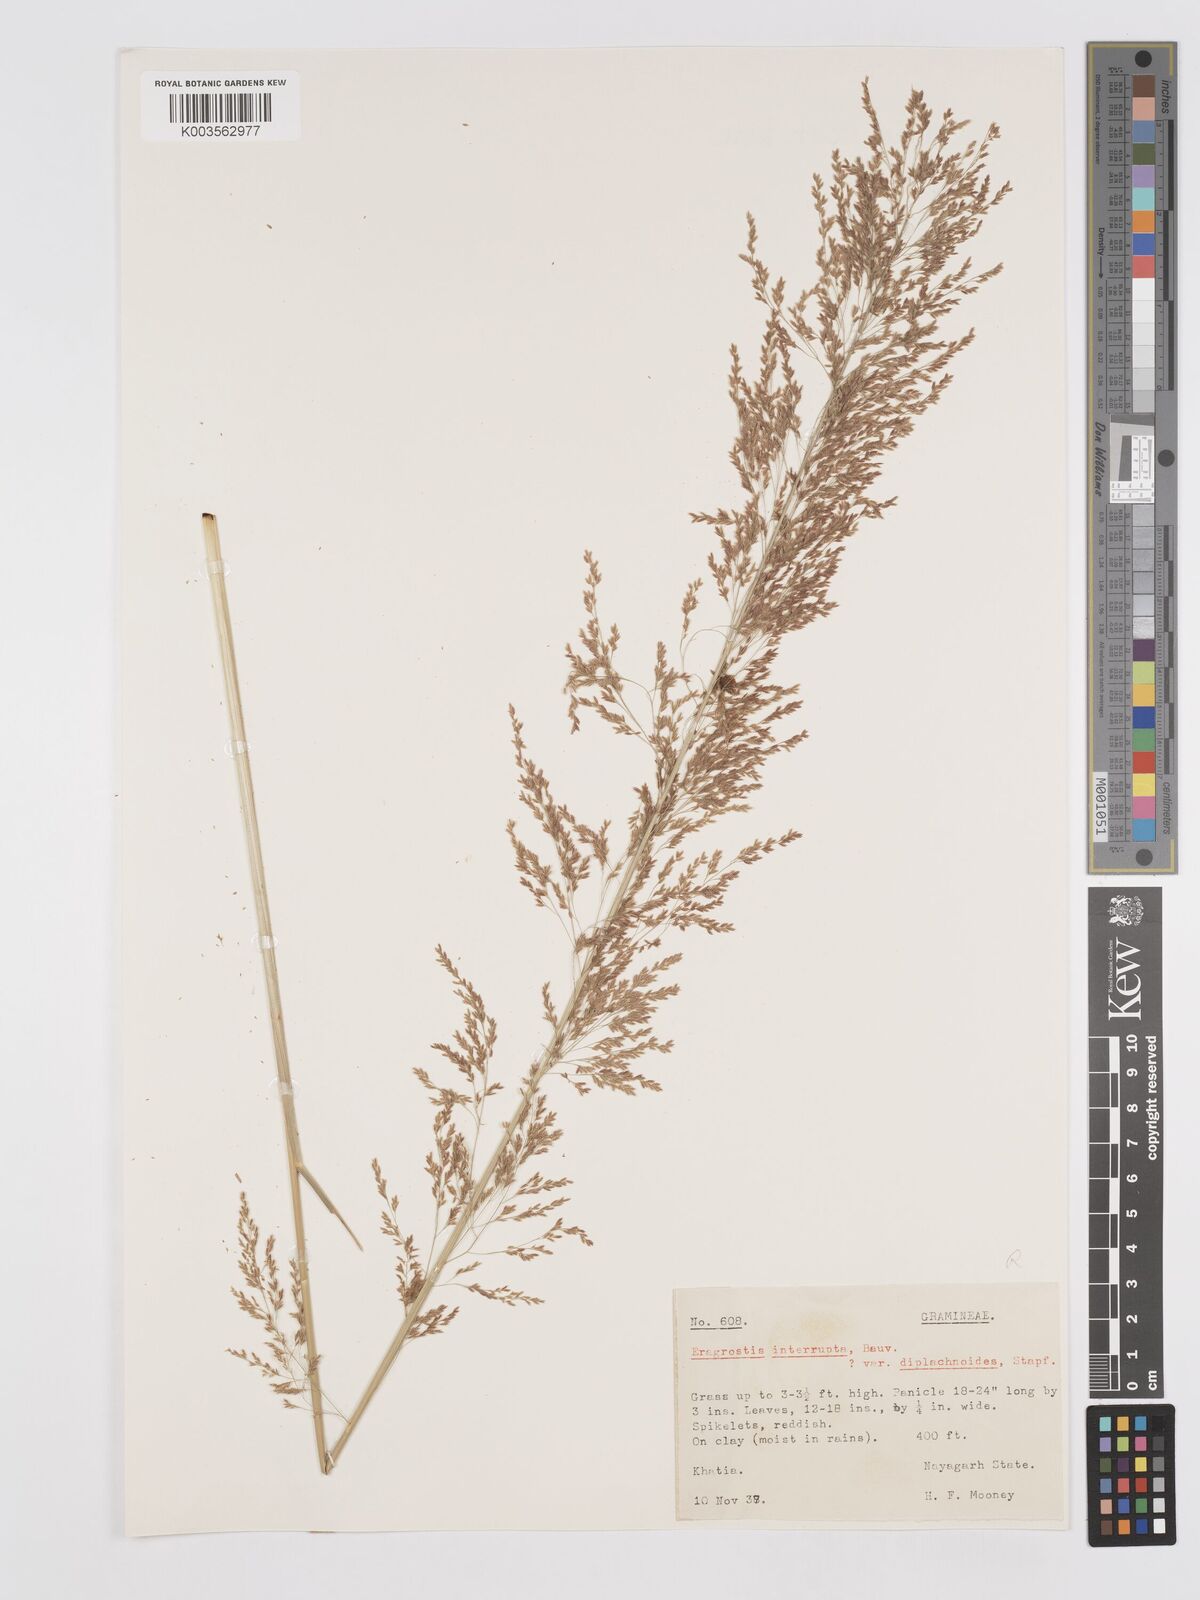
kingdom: Plantae
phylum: Tracheophyta
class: Liliopsida
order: Poales
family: Poaceae
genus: Eragrostis
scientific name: Eragrostis japonica
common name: Pond lovegrass
